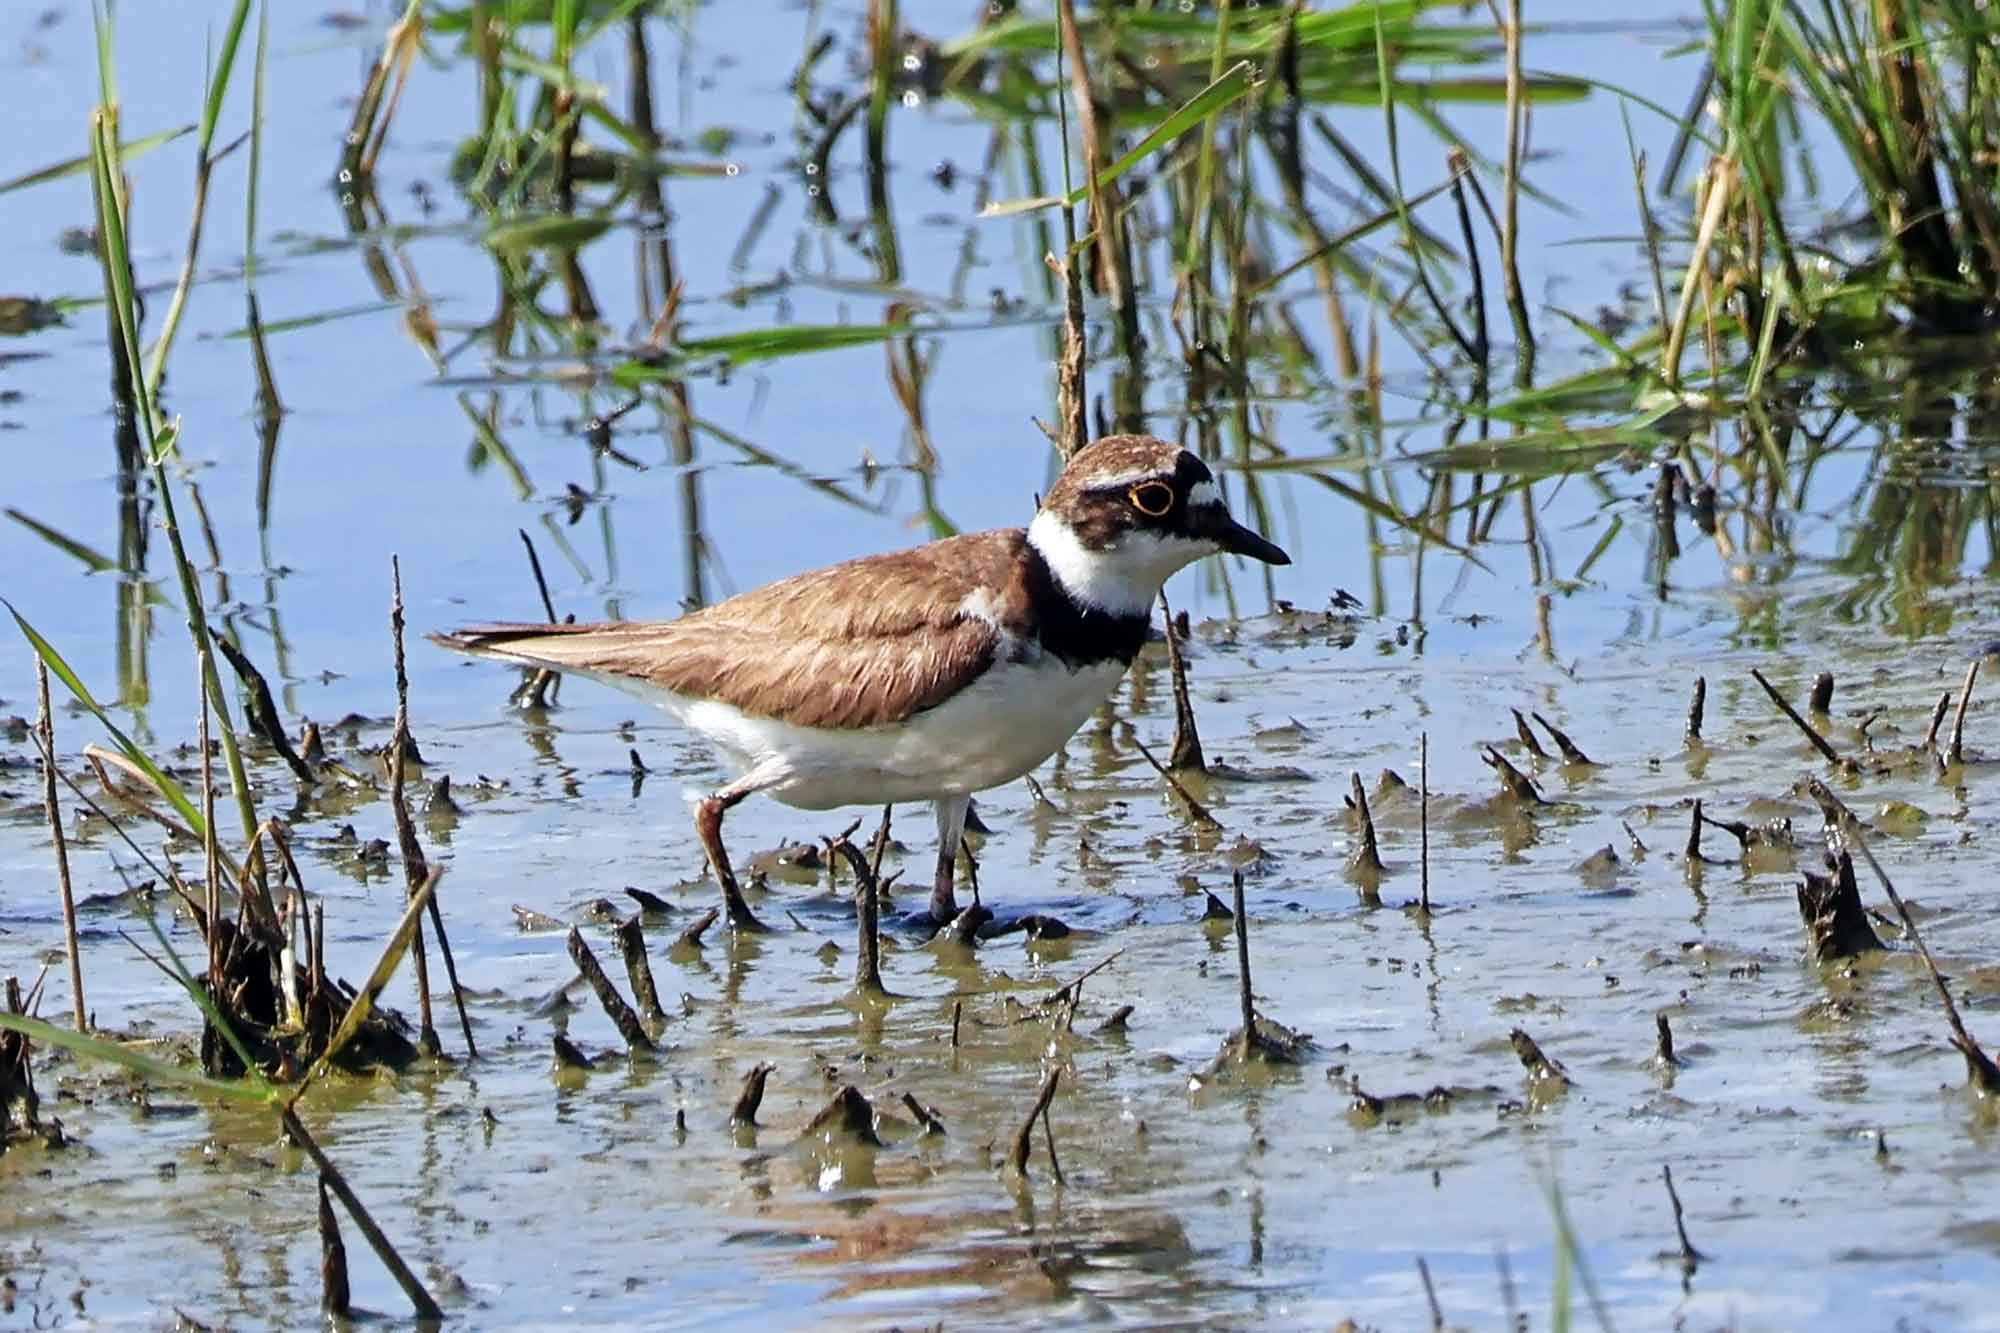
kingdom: Animalia
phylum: Chordata
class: Aves
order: Charadriiformes
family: Charadriidae
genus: Charadrius
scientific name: Charadrius dubius
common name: Lille præstekrave
